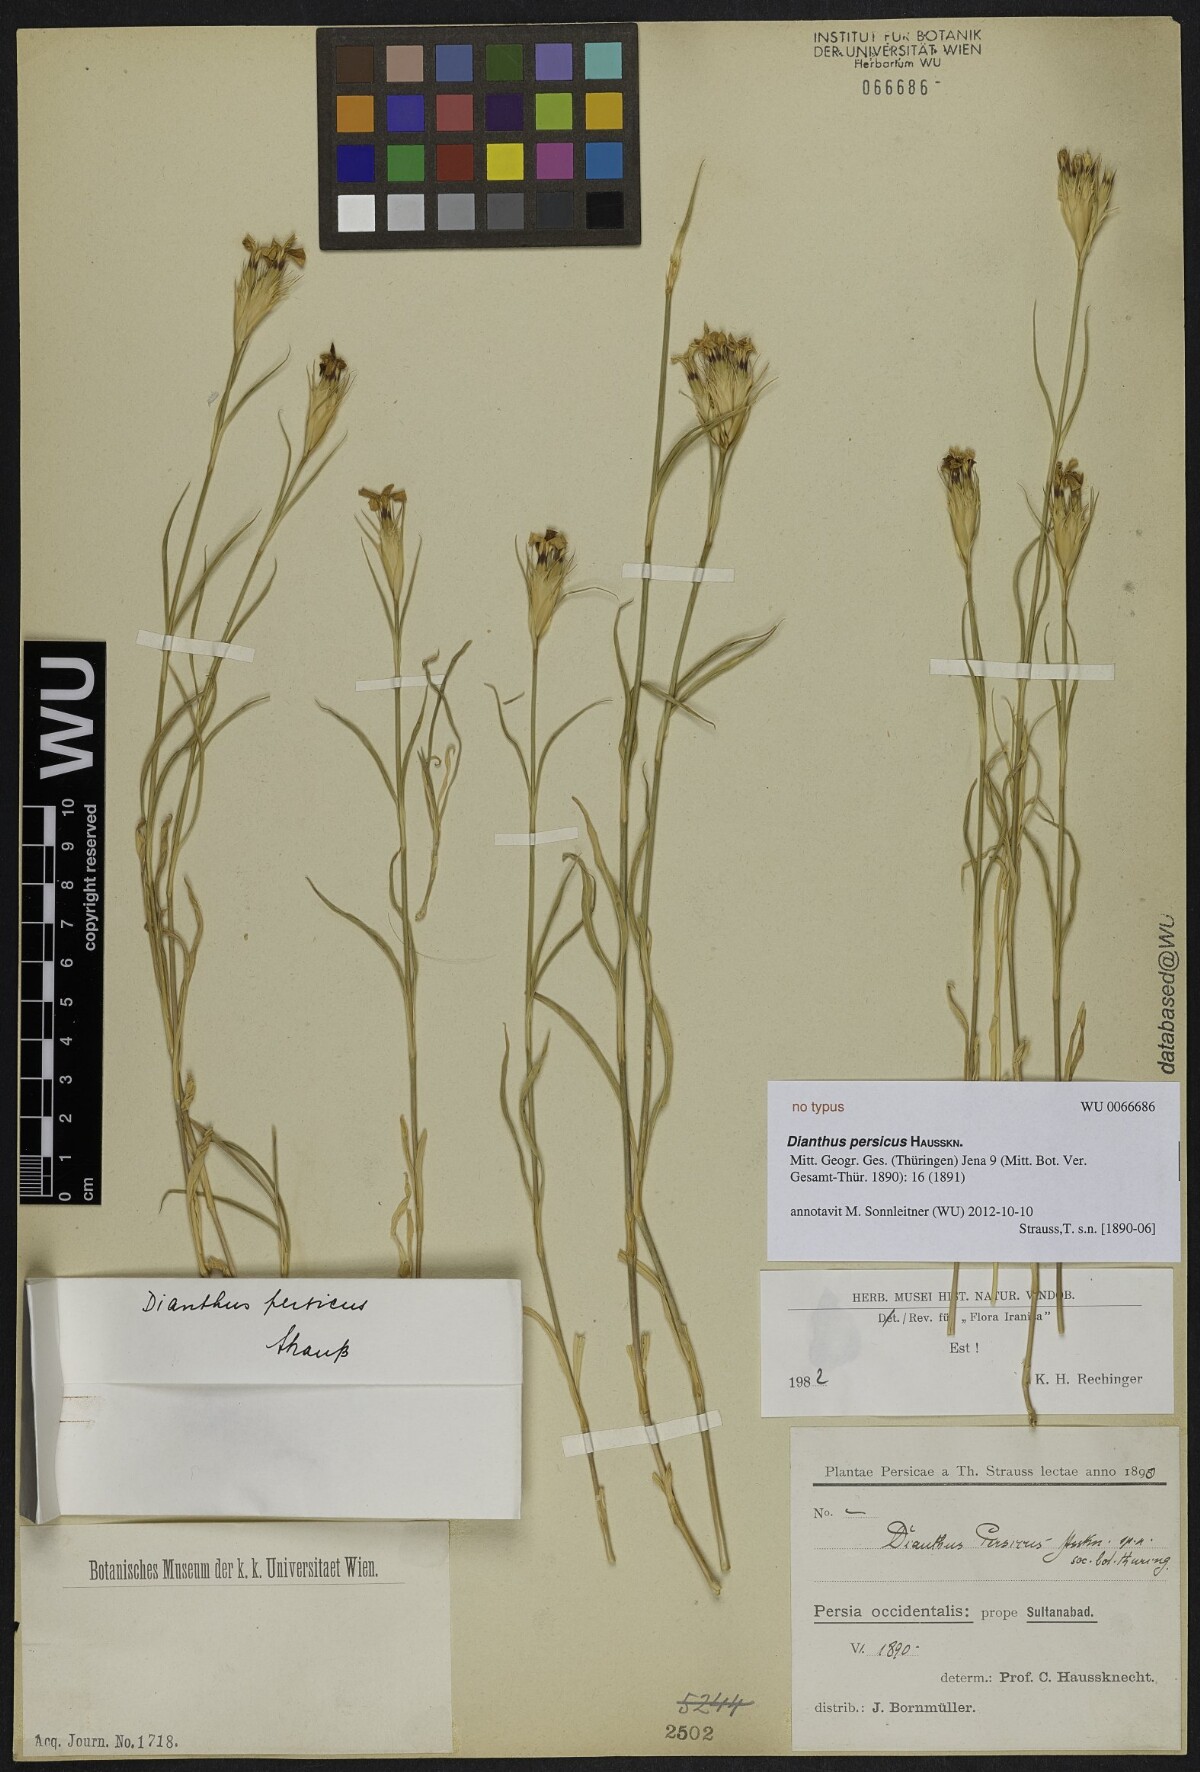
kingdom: Plantae
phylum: Tracheophyta
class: Magnoliopsida
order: Caryophyllales
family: Caryophyllaceae
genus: Dianthus
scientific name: Dianthus persicus
